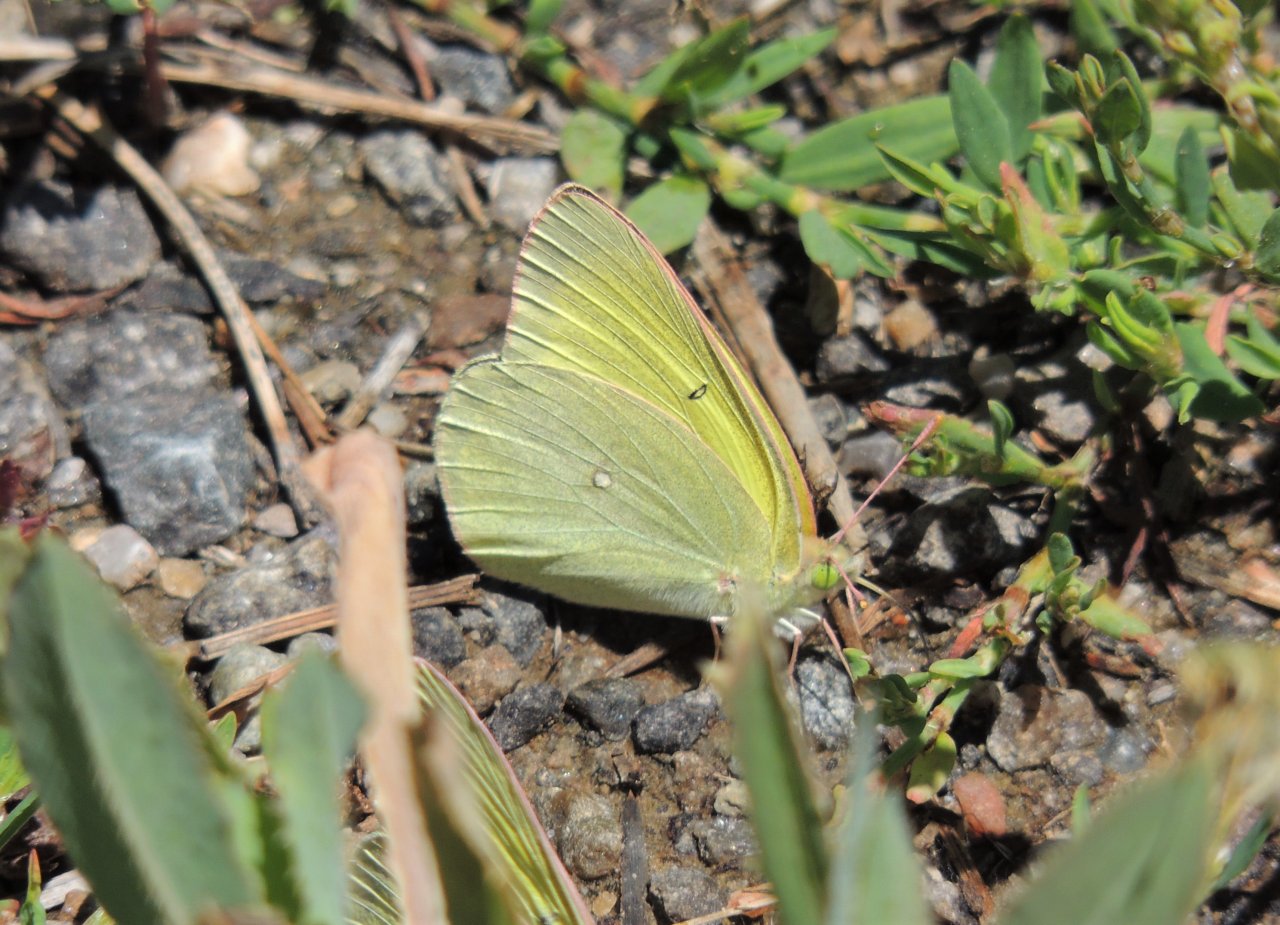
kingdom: Animalia
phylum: Arthropoda
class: Insecta
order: Lepidoptera
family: Pieridae
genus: Colias
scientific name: Colias alexandra
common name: Queen Alexandra's Sulphur
